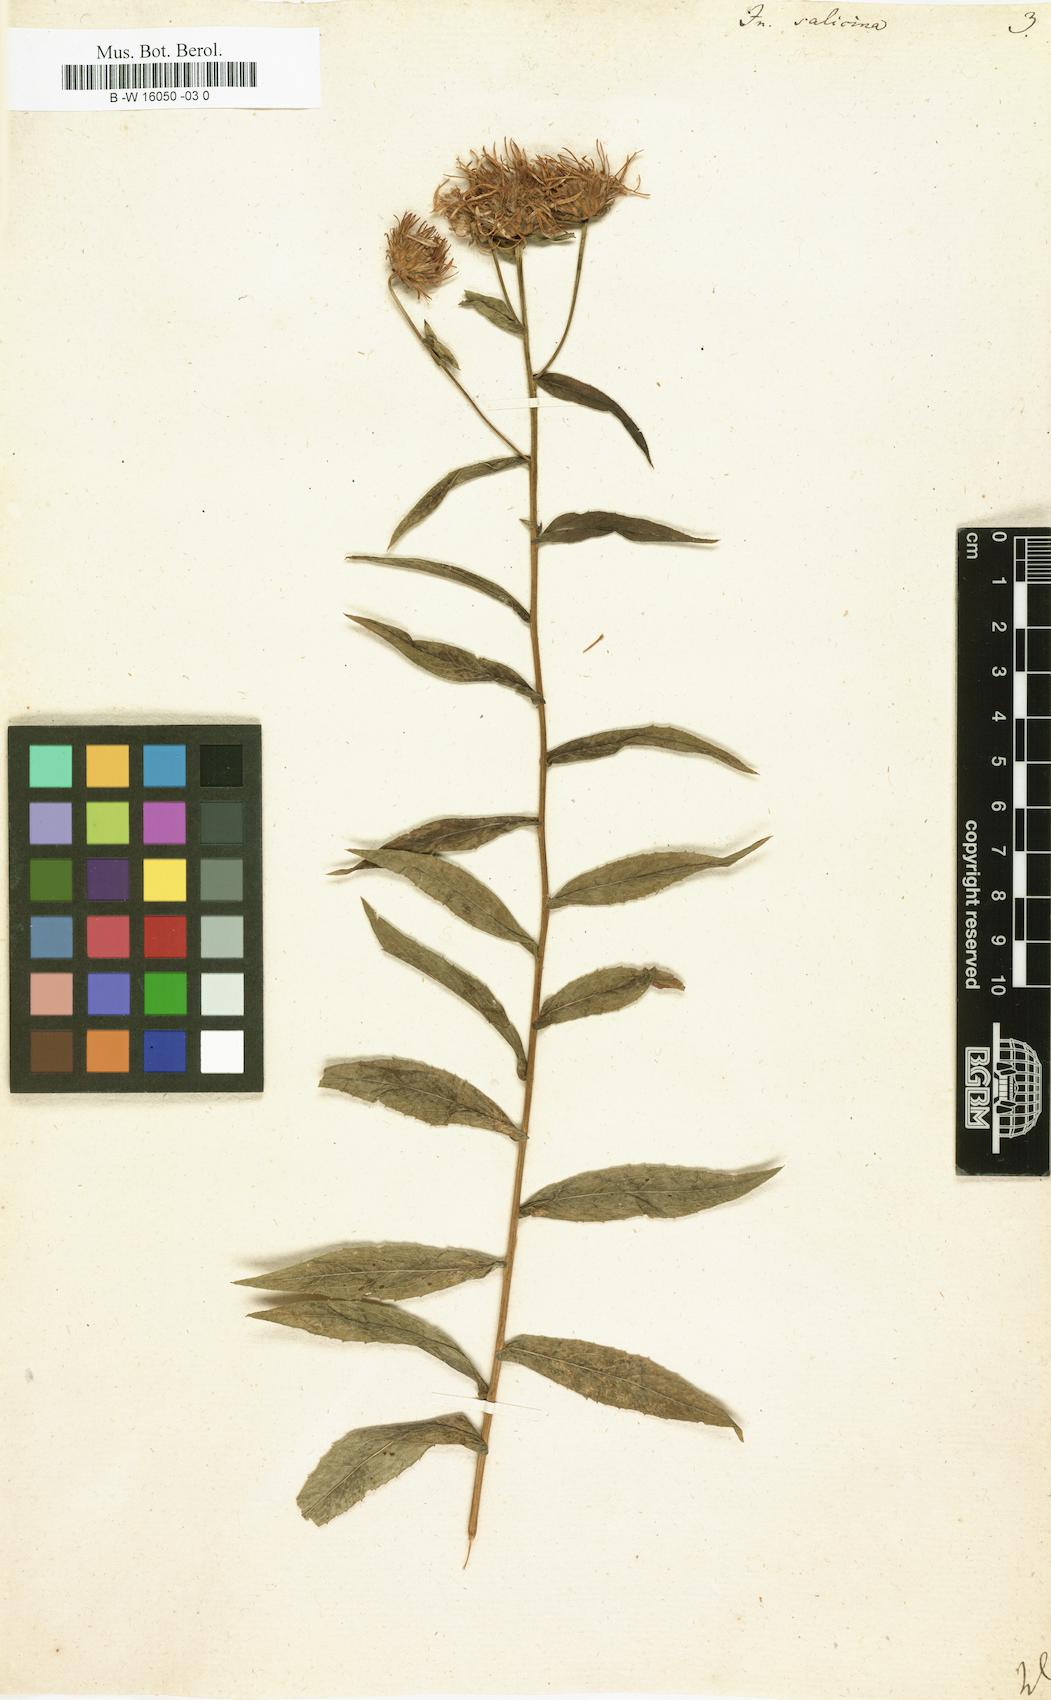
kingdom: Plantae
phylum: Tracheophyta
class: Magnoliopsida
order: Asterales
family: Asteraceae
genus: Pentanema
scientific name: Pentanema salicinum
